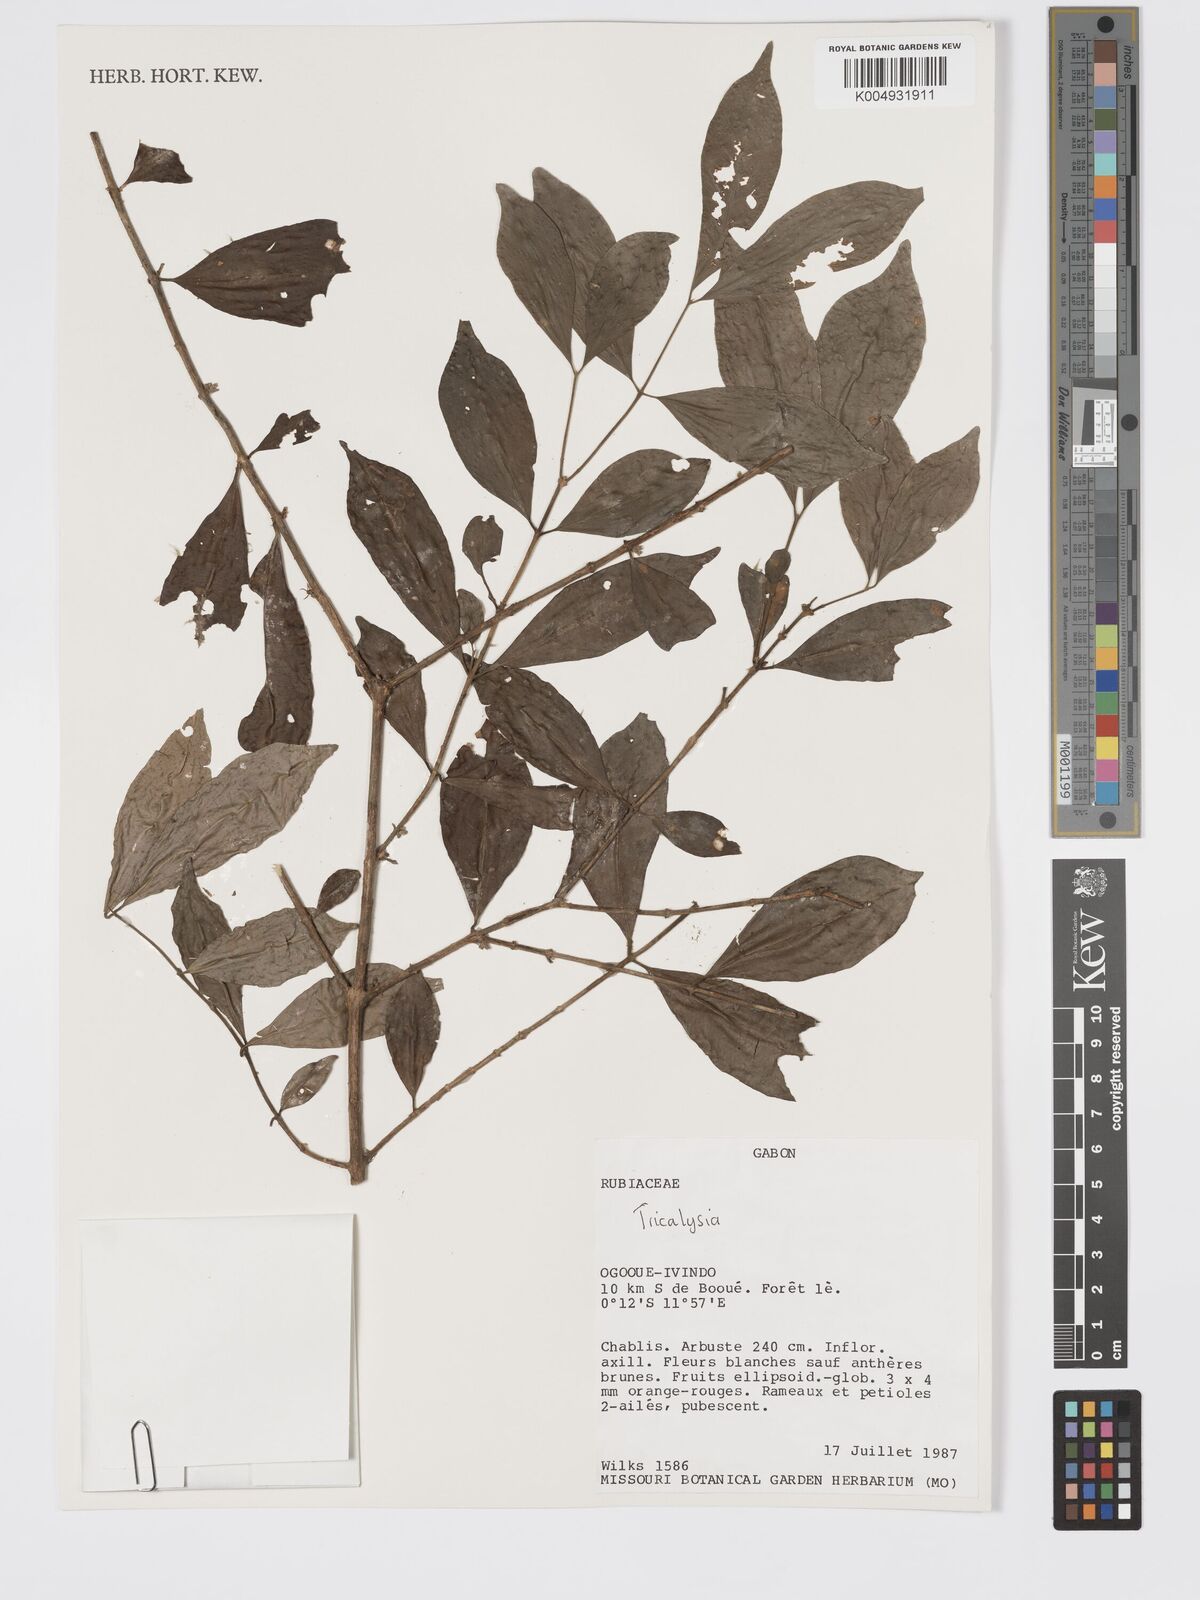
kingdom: Plantae
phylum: Tracheophyta
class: Magnoliopsida
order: Gentianales
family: Rubiaceae
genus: Tricalysia
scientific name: Tricalysia
